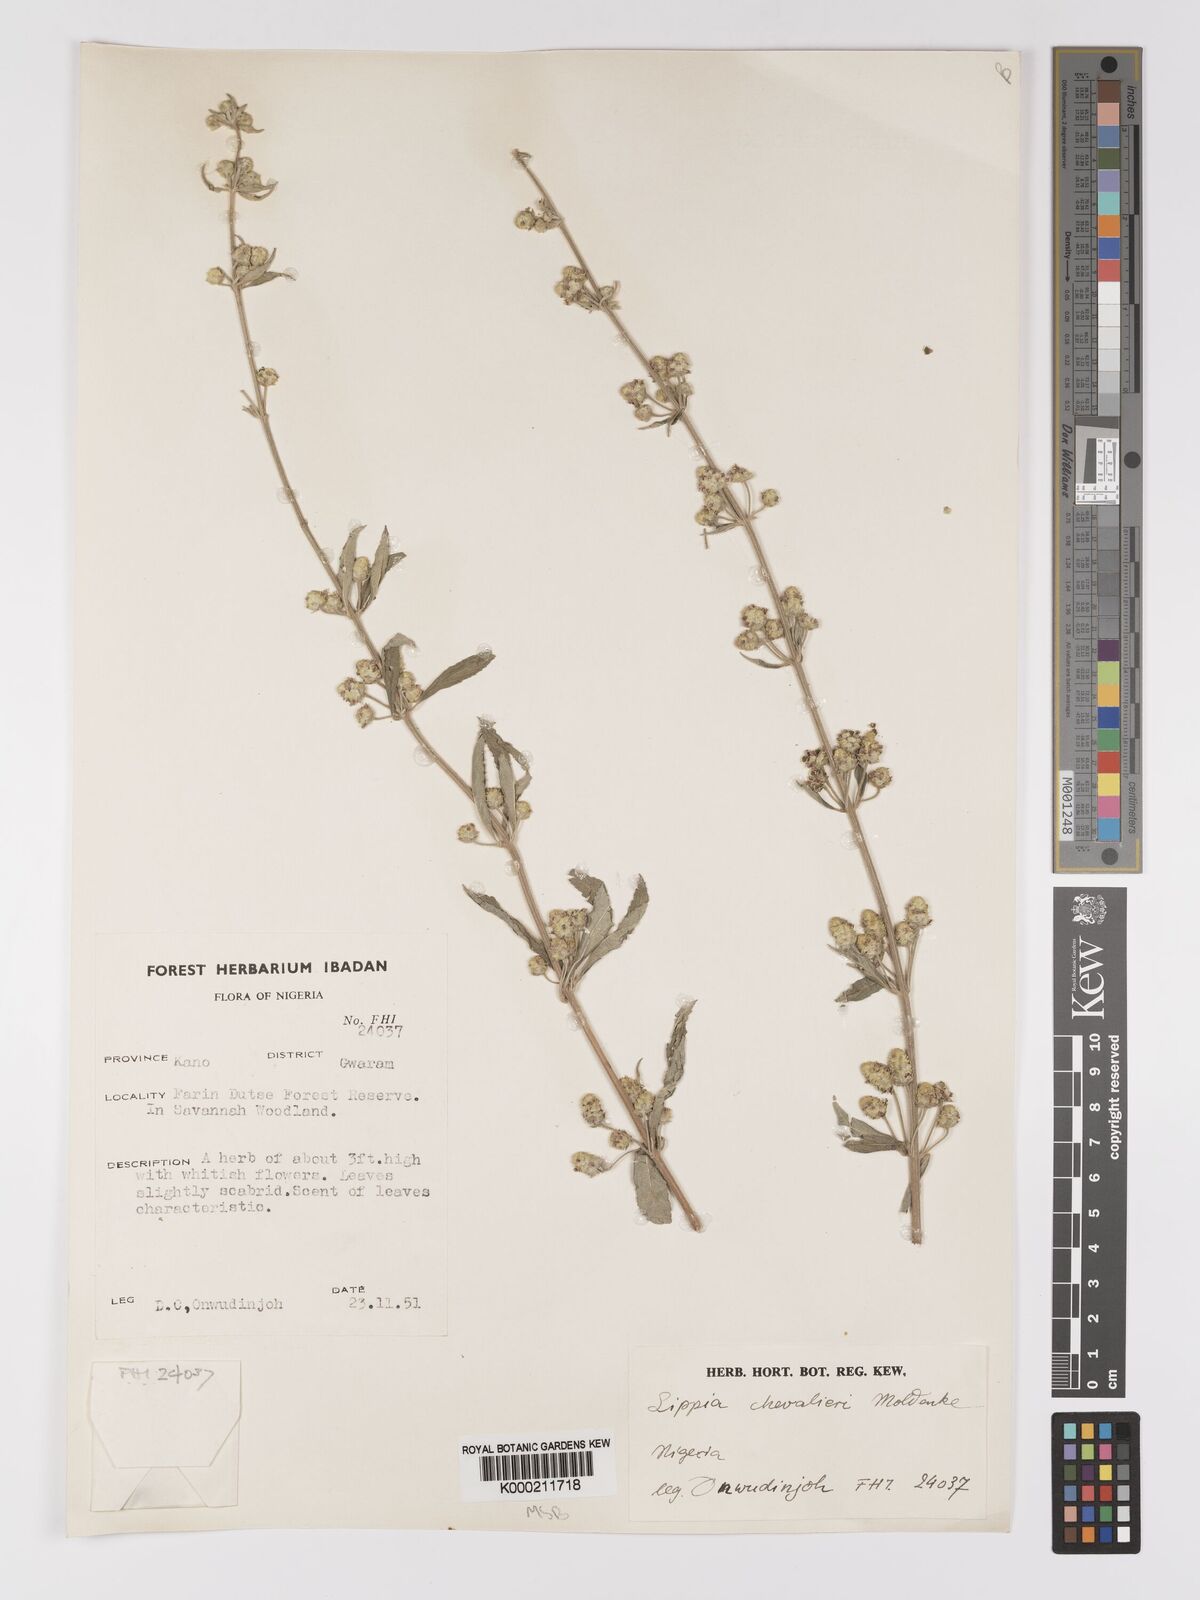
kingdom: Plantae
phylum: Tracheophyta
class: Magnoliopsida
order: Lamiales
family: Verbenaceae
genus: Lippia
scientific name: Lippia chevalieri
